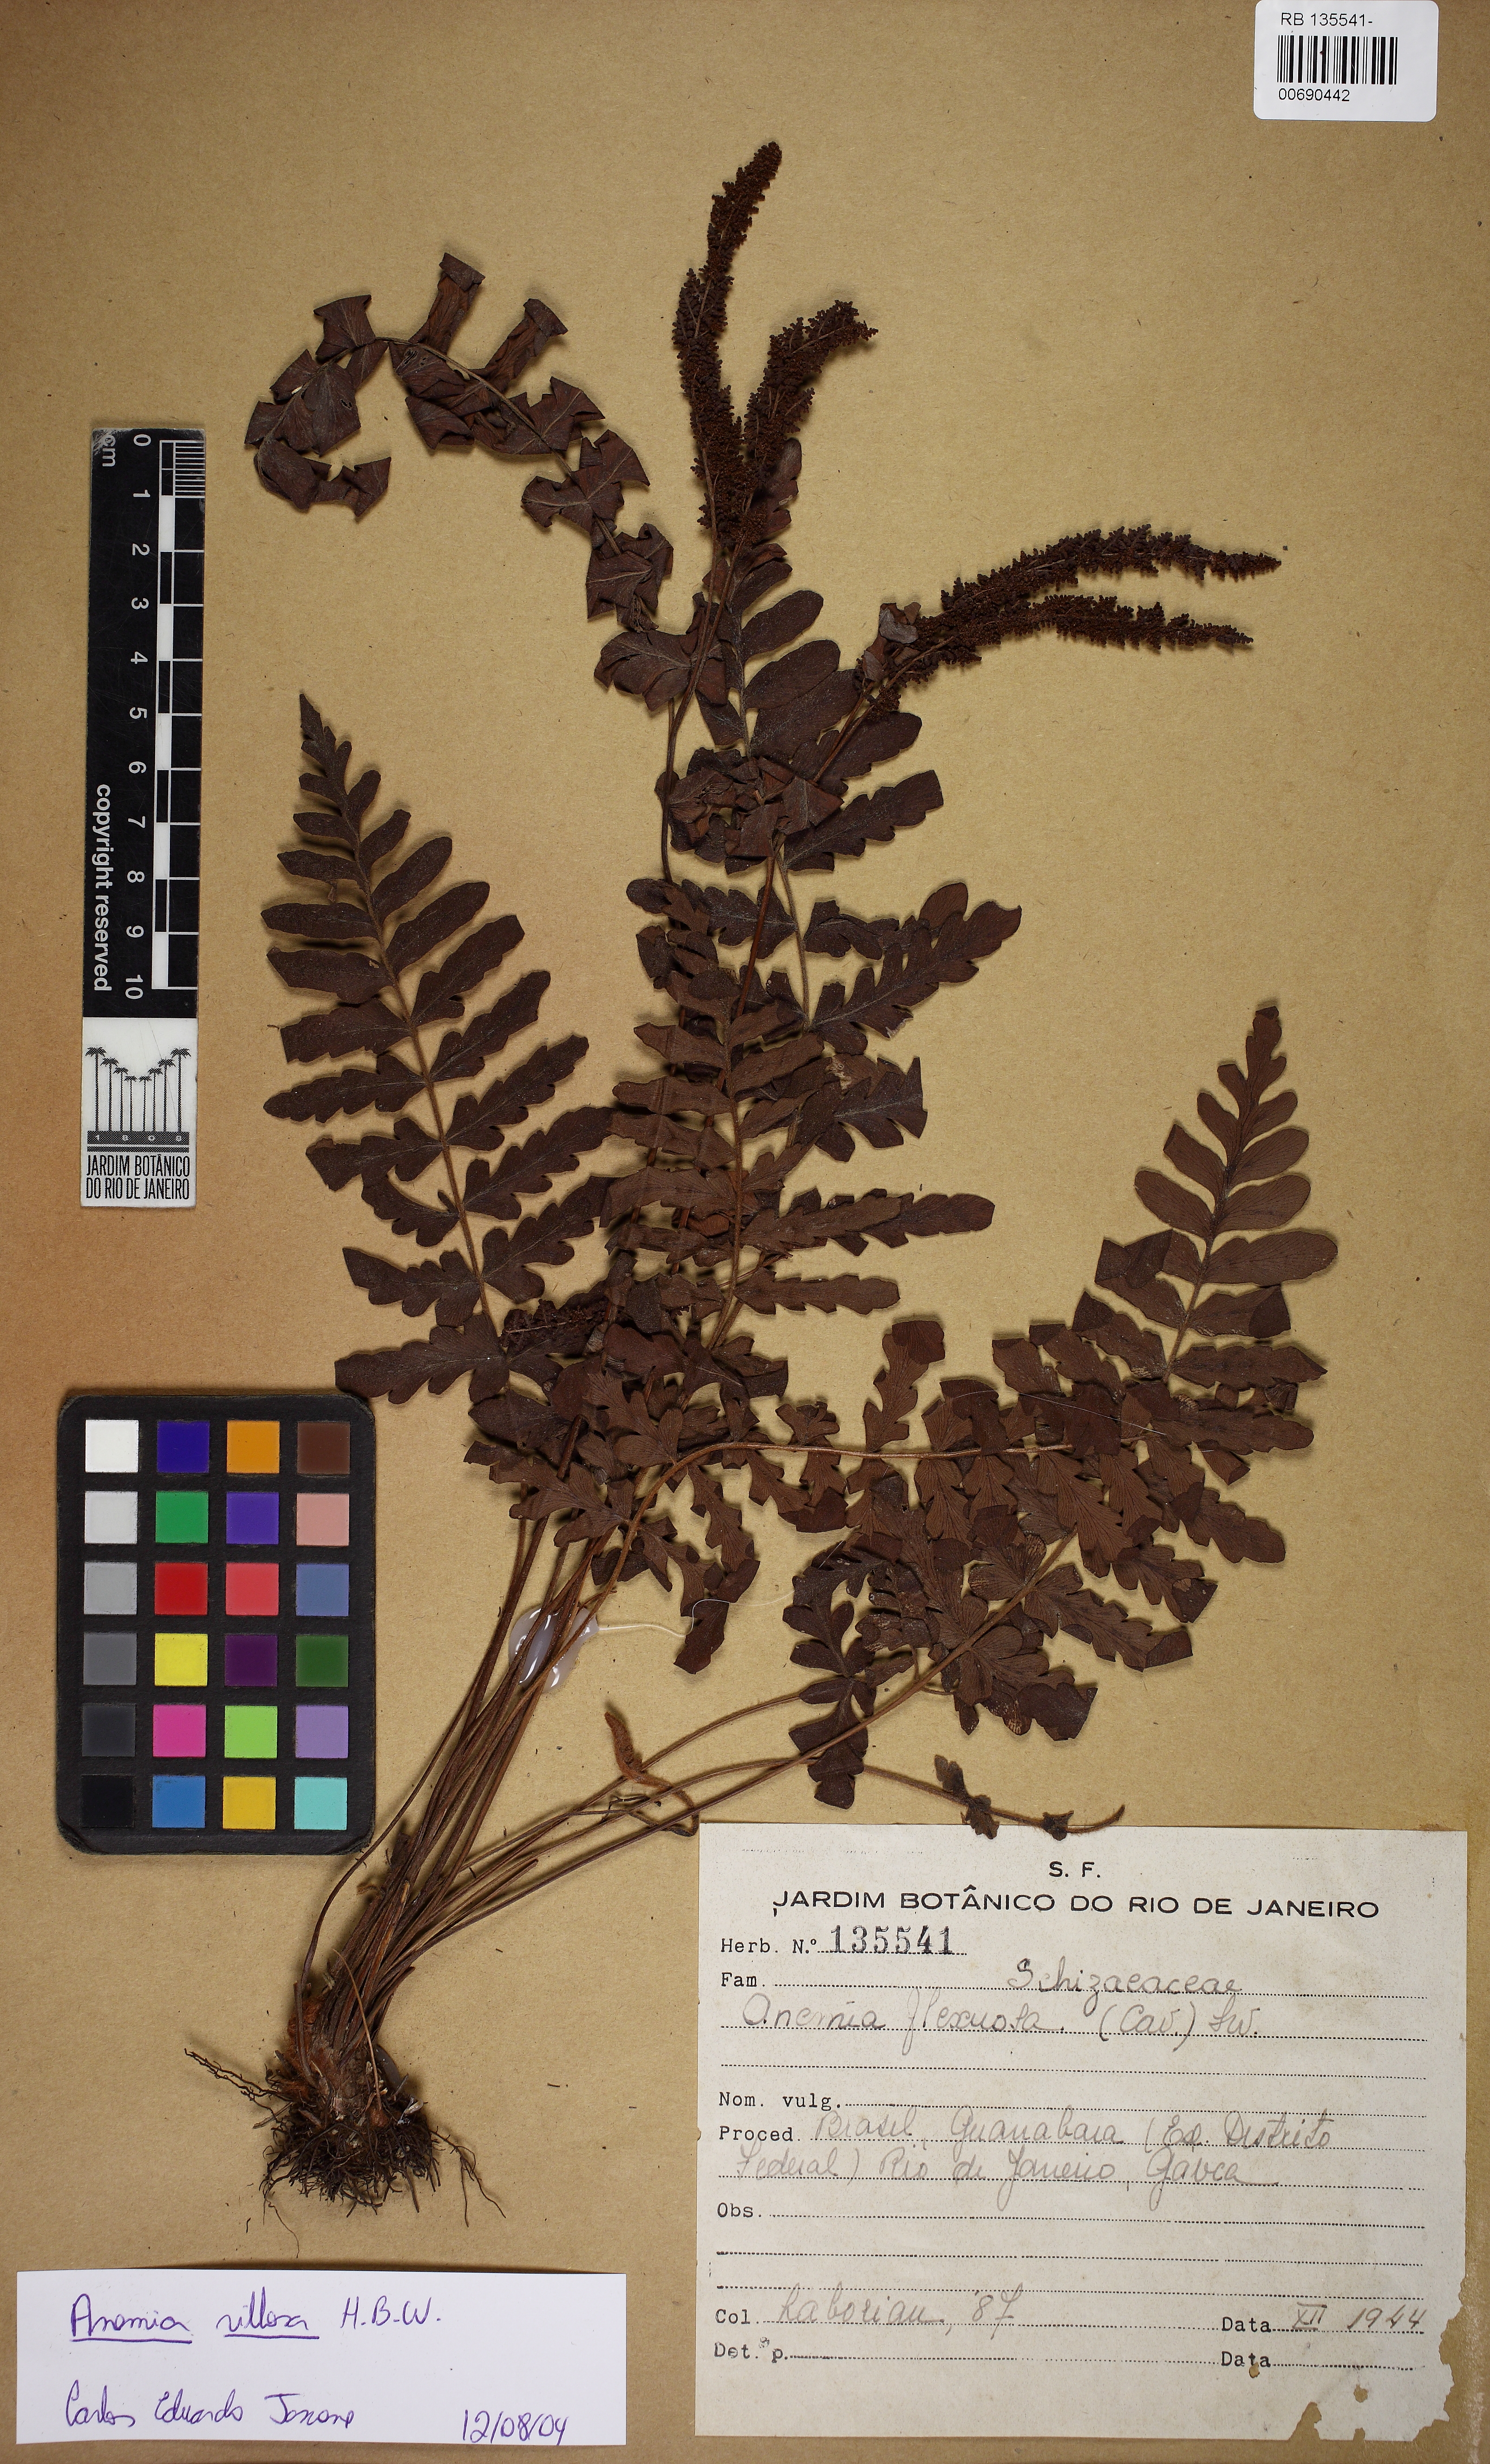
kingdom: Plantae
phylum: Tracheophyta
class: Polypodiopsida
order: Schizaeales
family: Anemiaceae
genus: Anemia
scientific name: Anemia villosa
